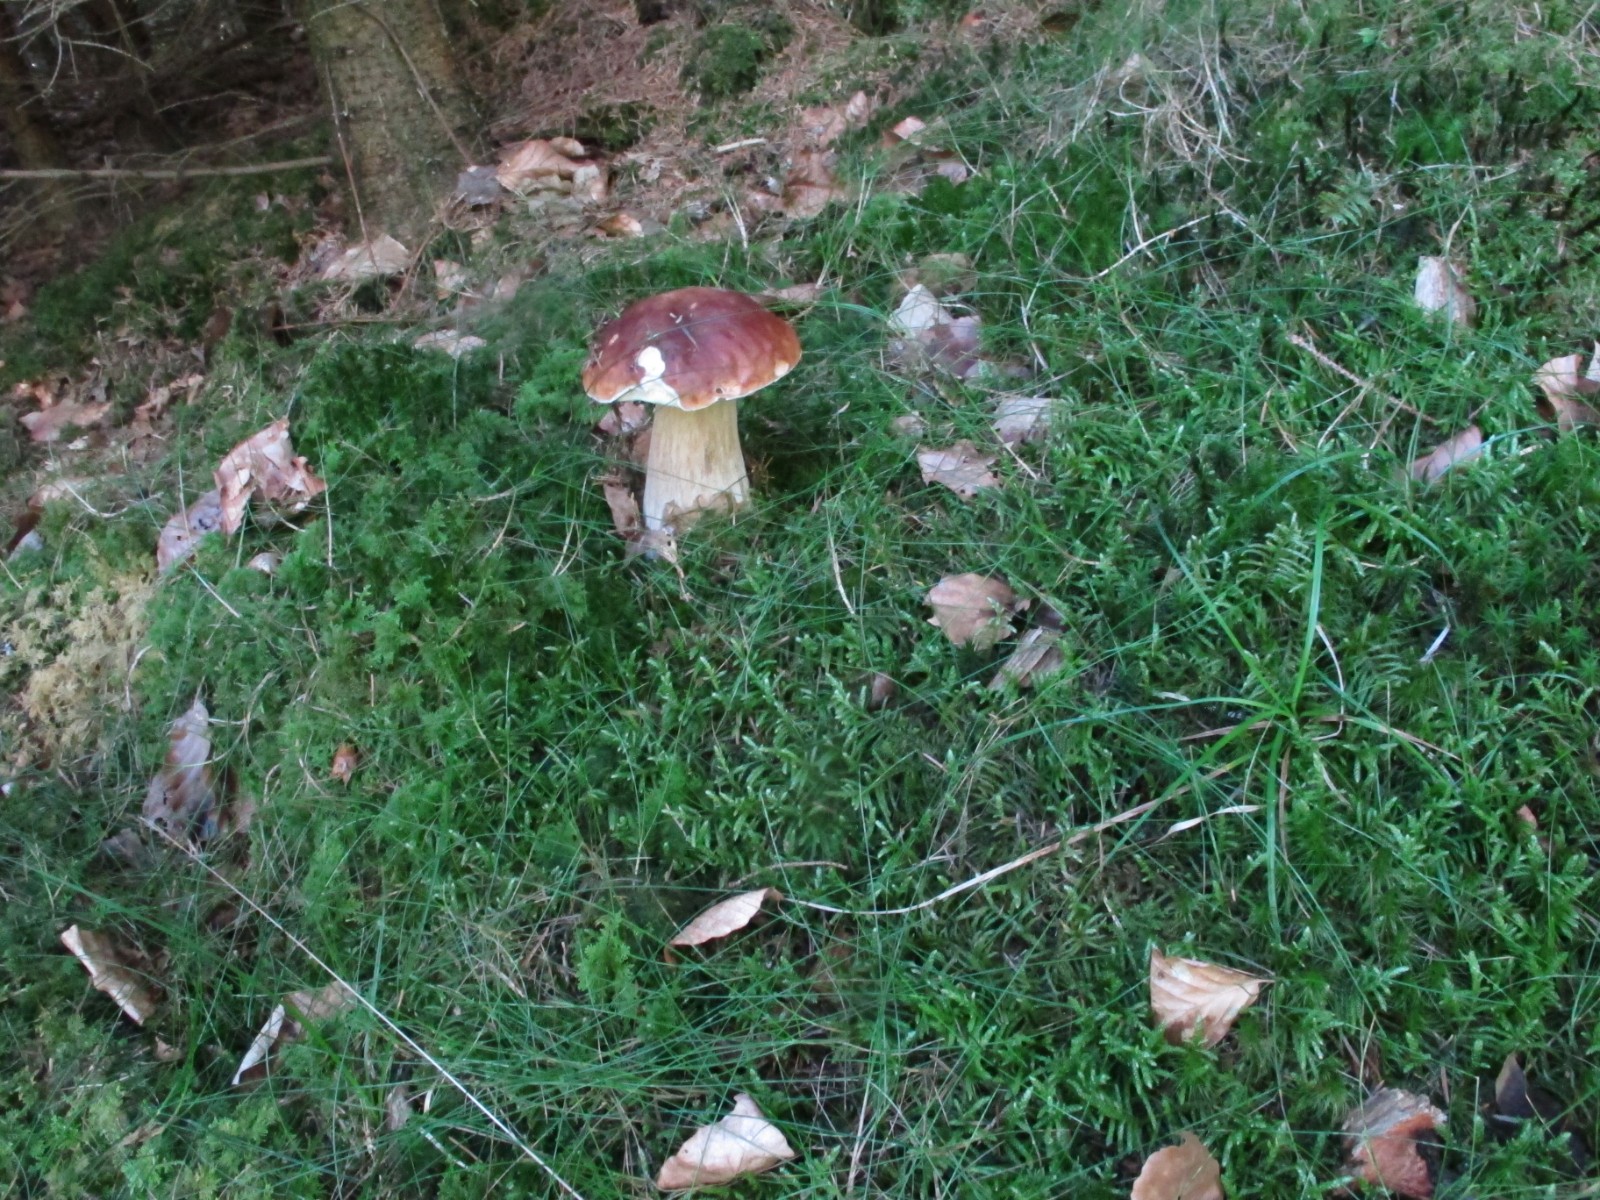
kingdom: Fungi
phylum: Basidiomycota
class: Agaricomycetes
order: Boletales
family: Boletaceae
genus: Boletus
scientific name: Boletus reticulatus
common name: sommer-rørhat
